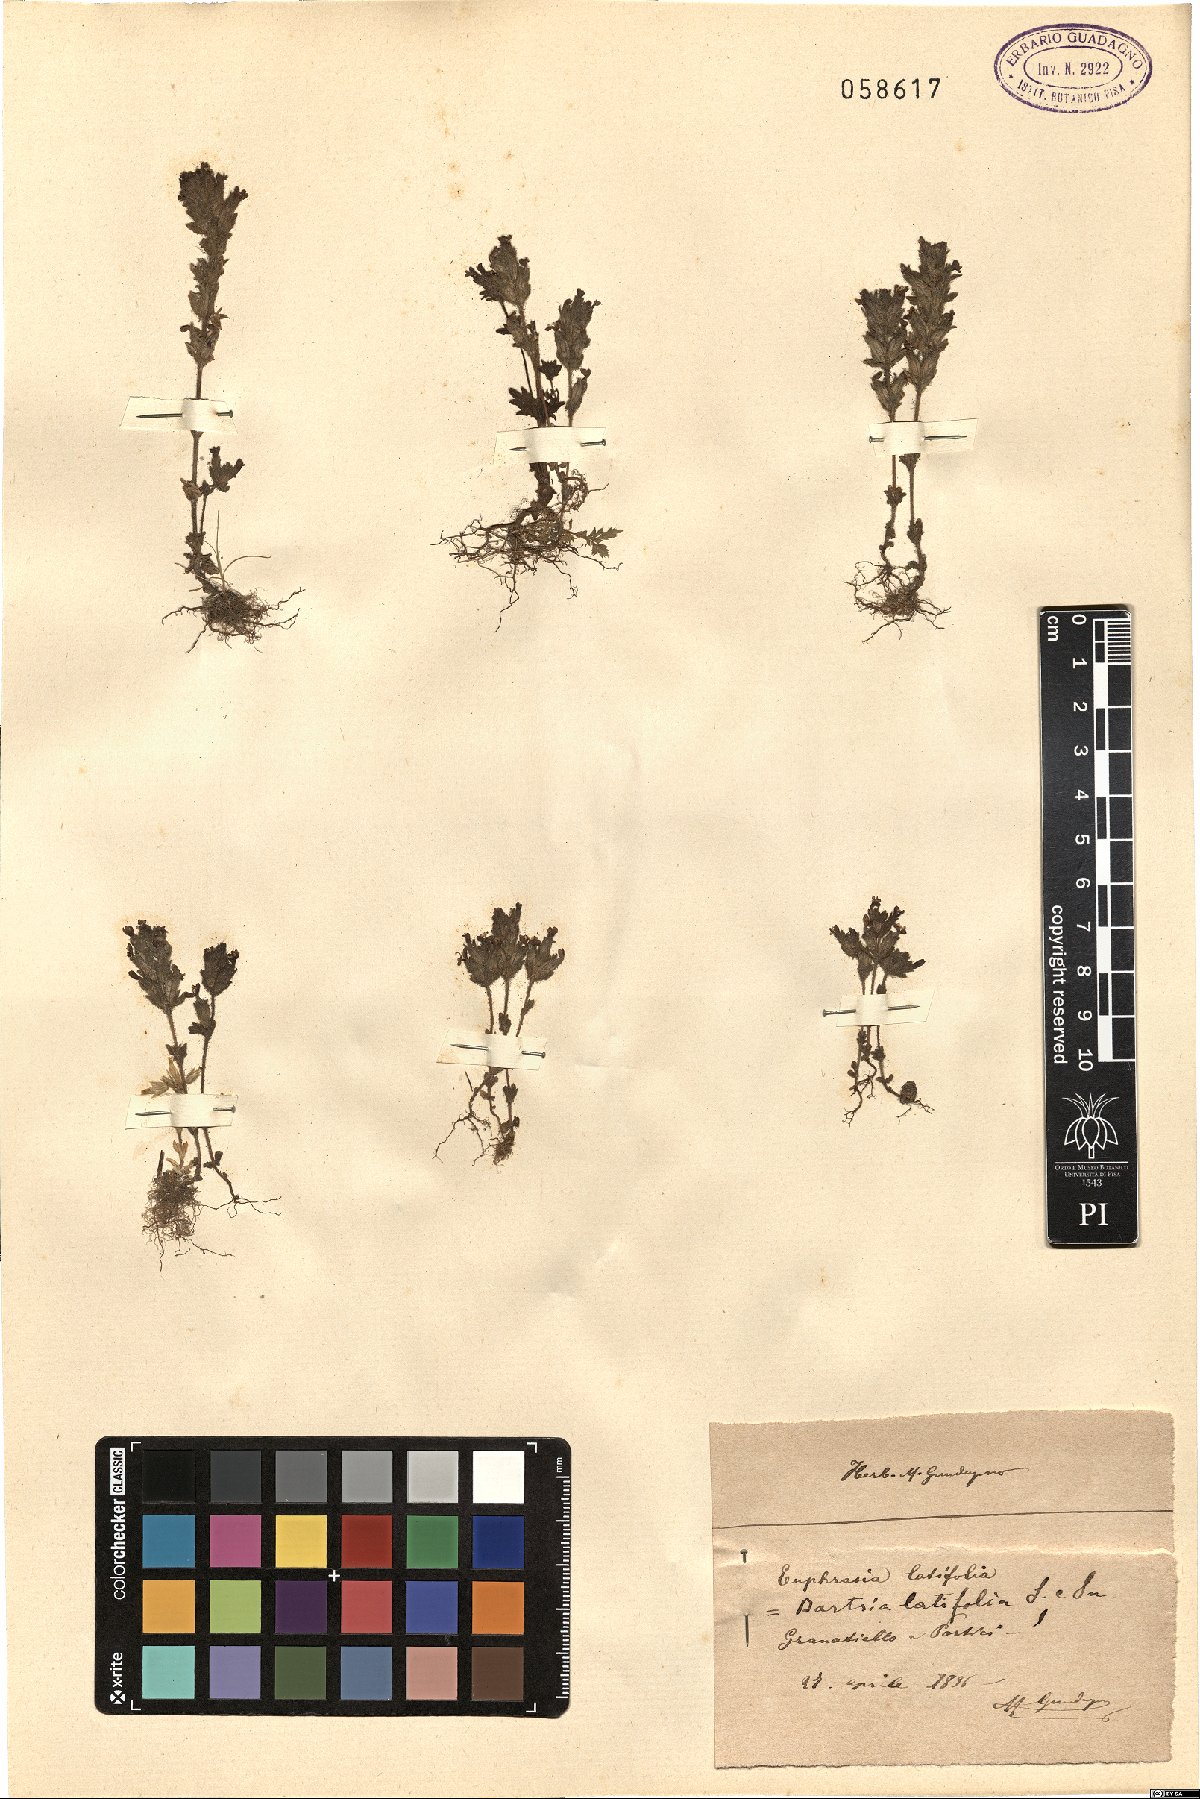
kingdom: Plantae
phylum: Tracheophyta
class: Magnoliopsida
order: Lamiales
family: Orobanchaceae
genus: Parentucellia
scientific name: Parentucellia latifolia
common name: Broadleaf glandweed
